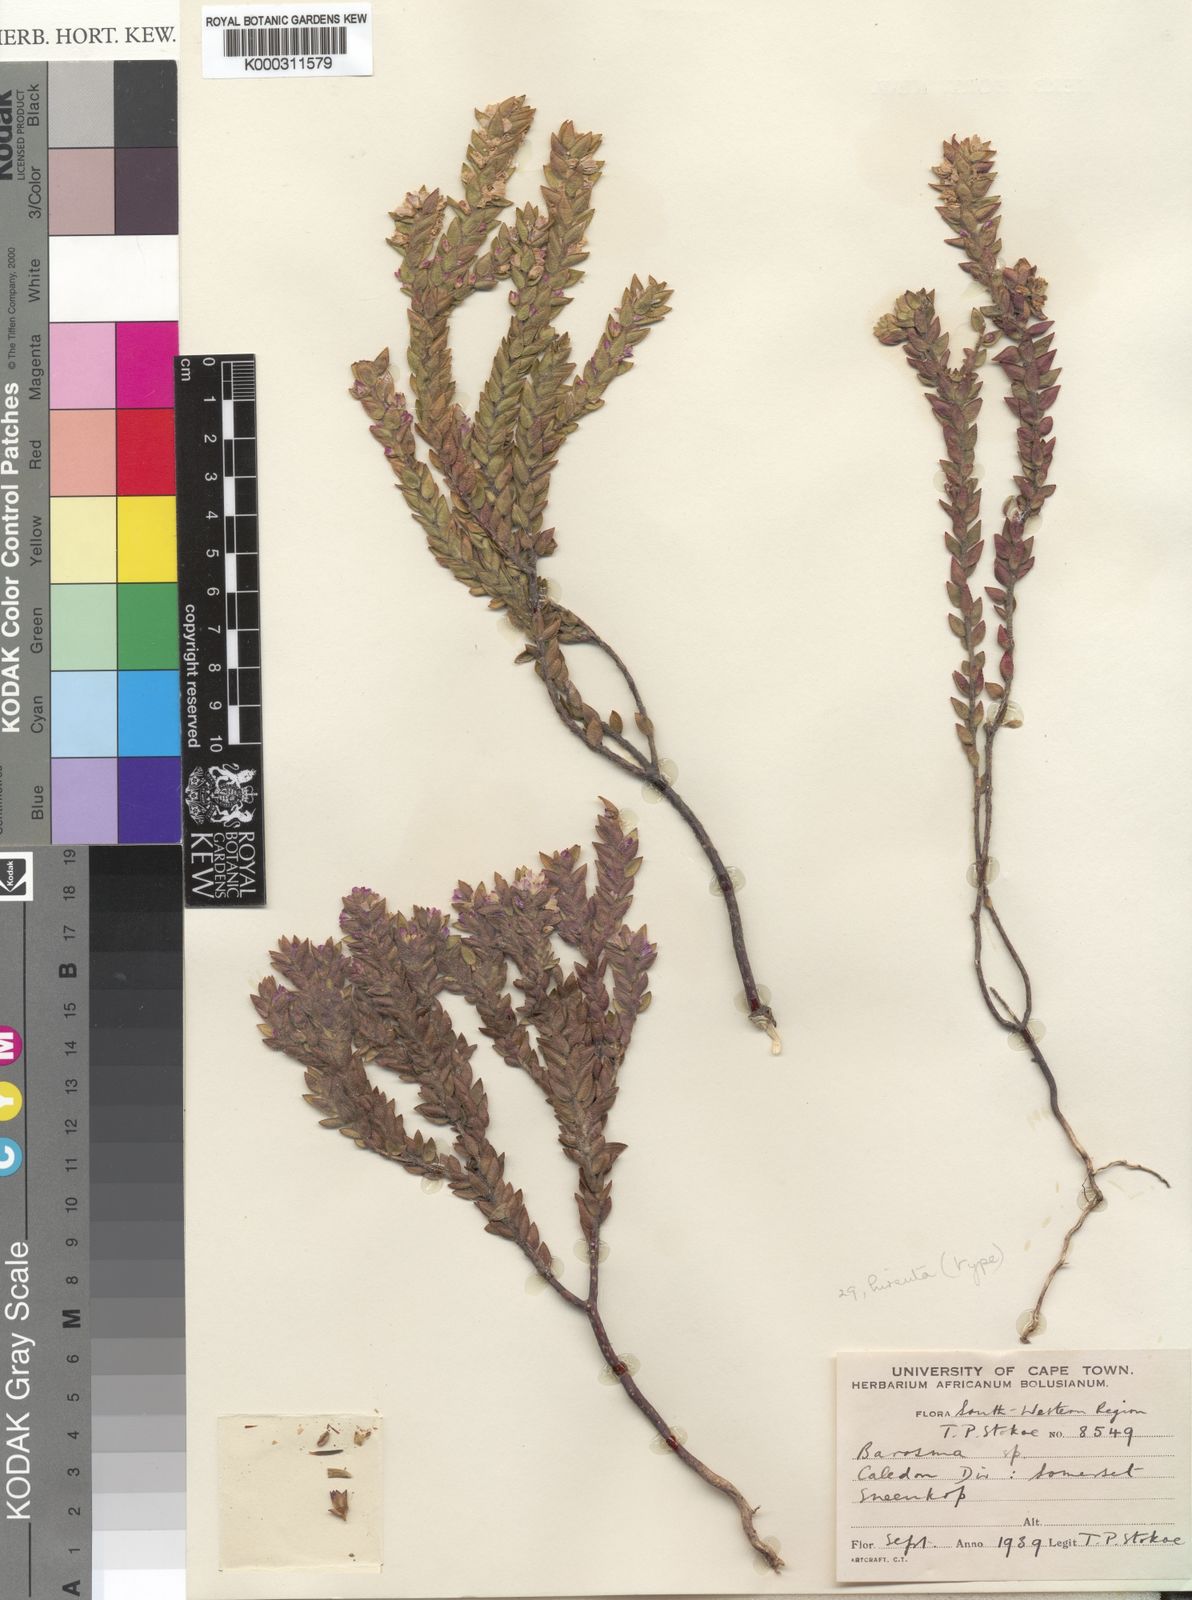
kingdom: Plantae
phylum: Tracheophyta
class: Magnoliopsida
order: Sapindales
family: Rutaceae
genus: Agathosma
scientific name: Agathosma
